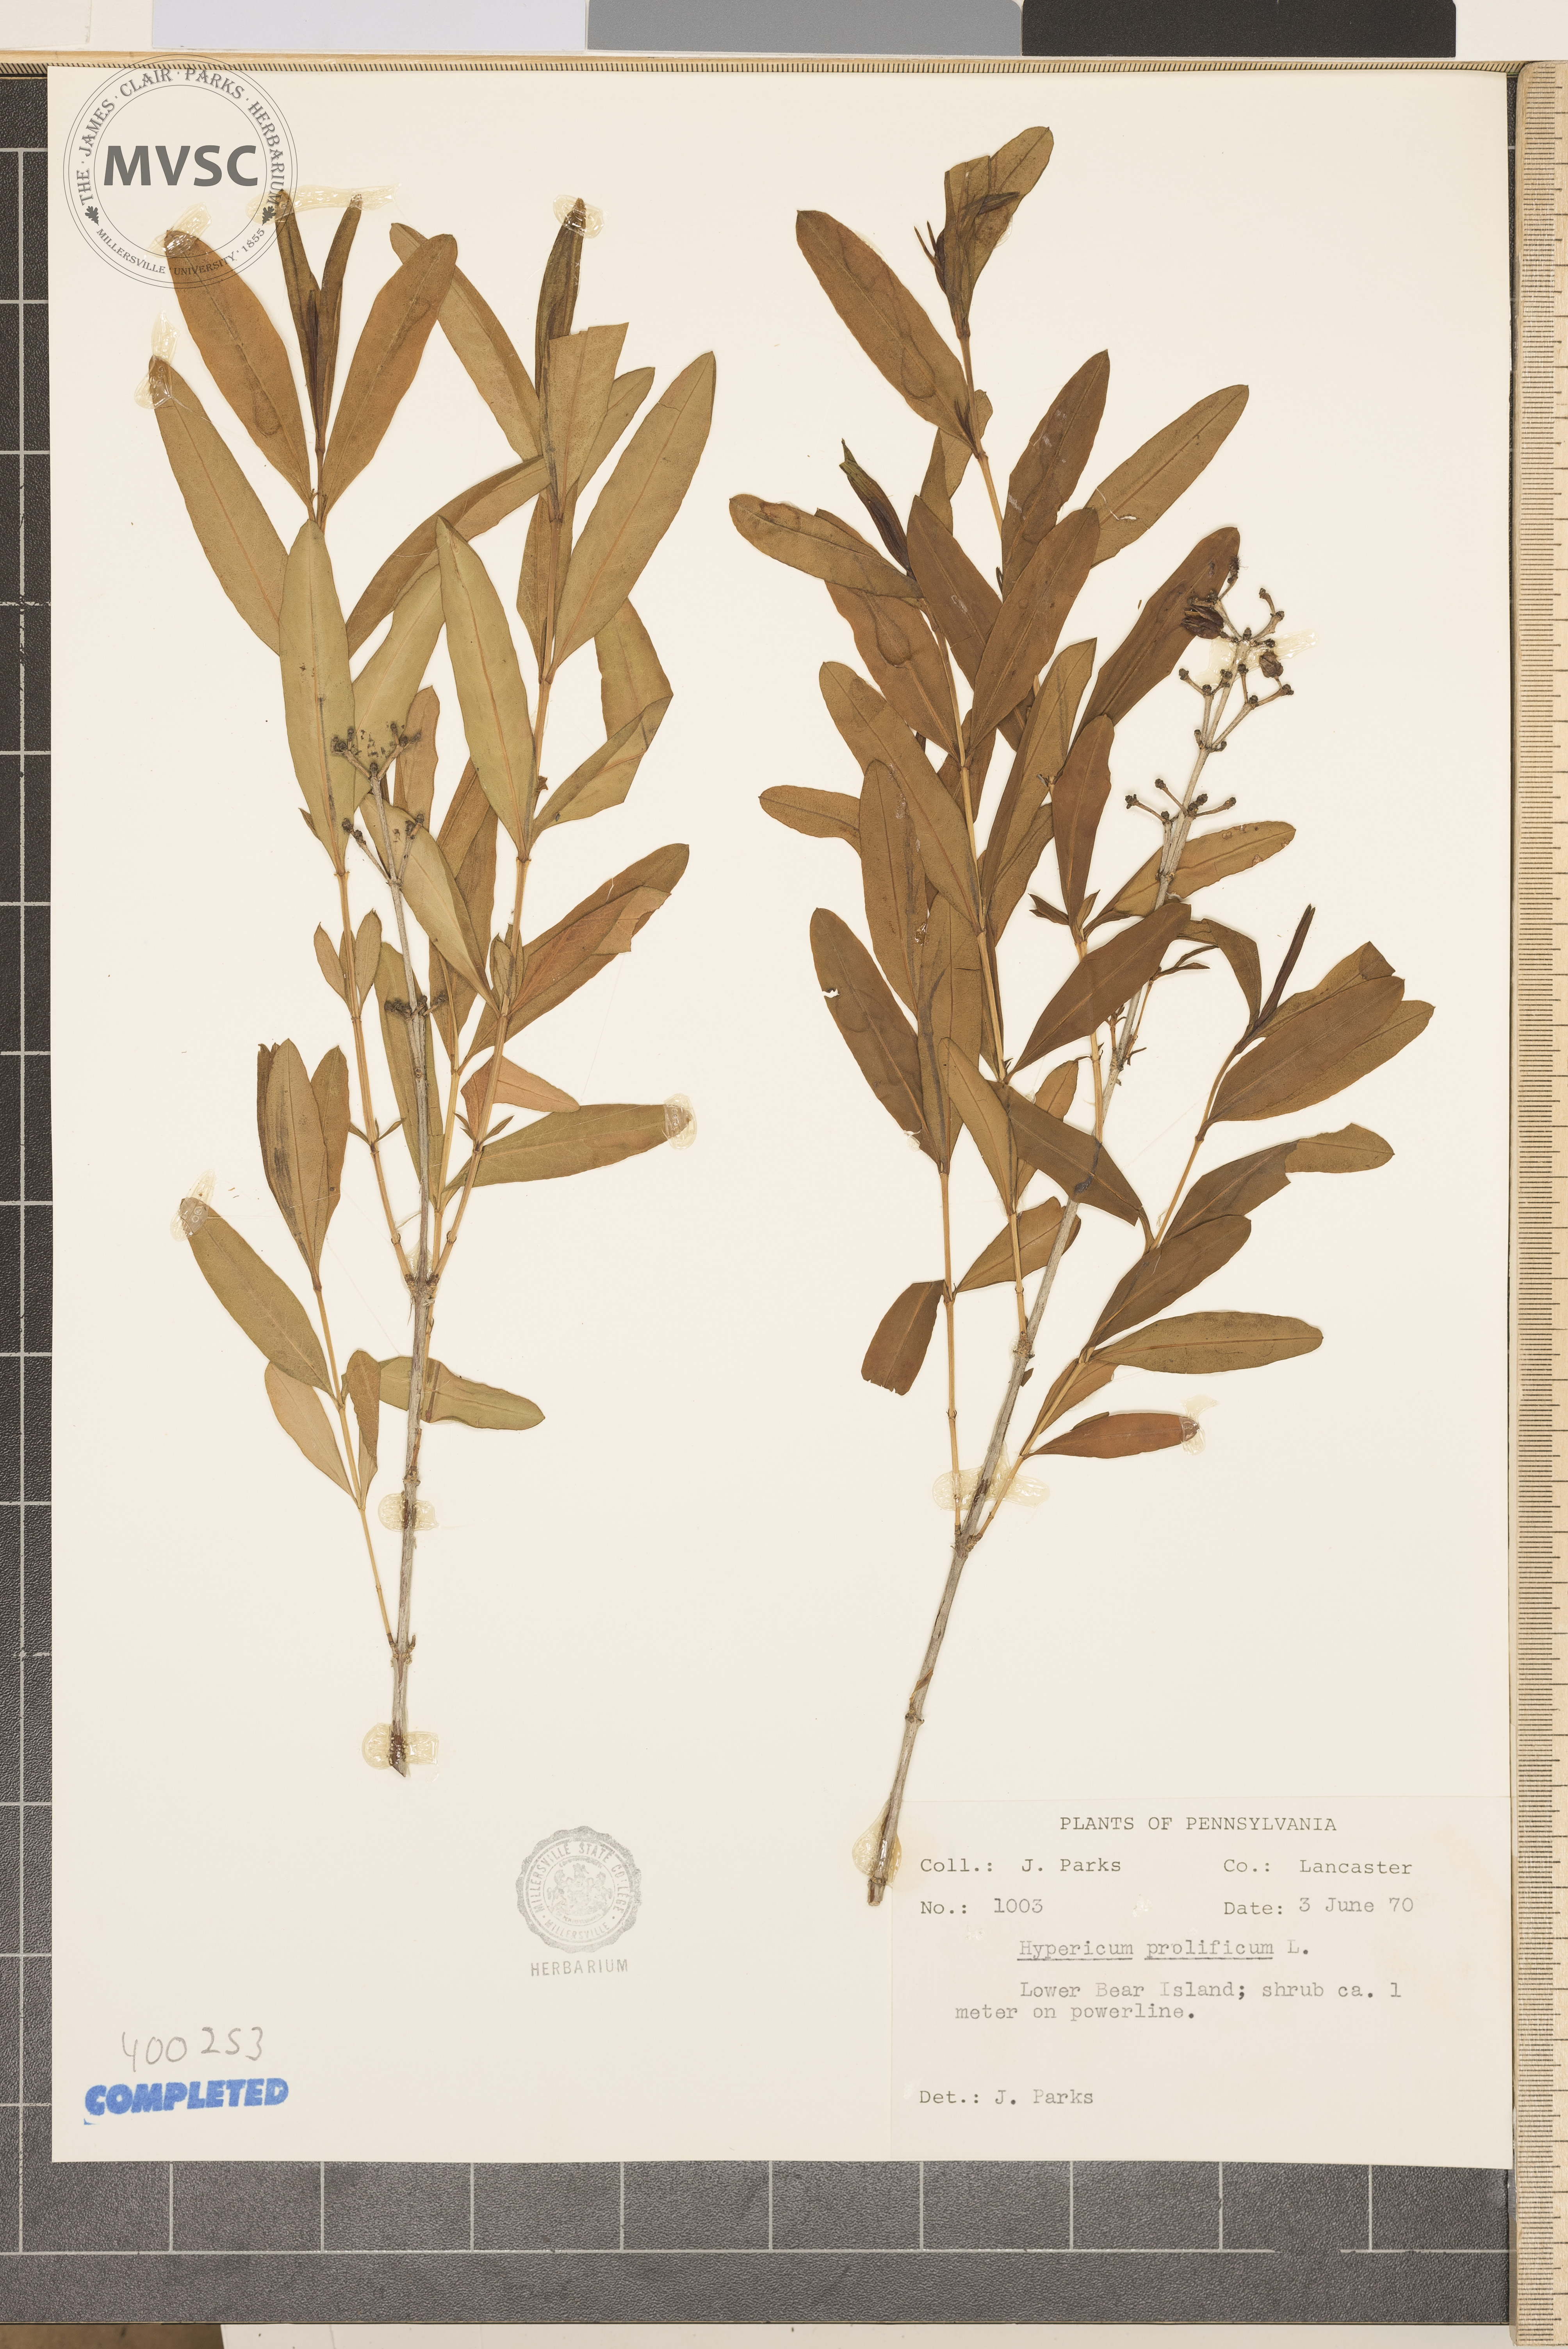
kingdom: Plantae
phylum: Tracheophyta
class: Magnoliopsida
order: Malpighiales
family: Hypericaceae
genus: Hypericum
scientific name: Hypericum prolificum
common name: Shrubby St. John's-wort
